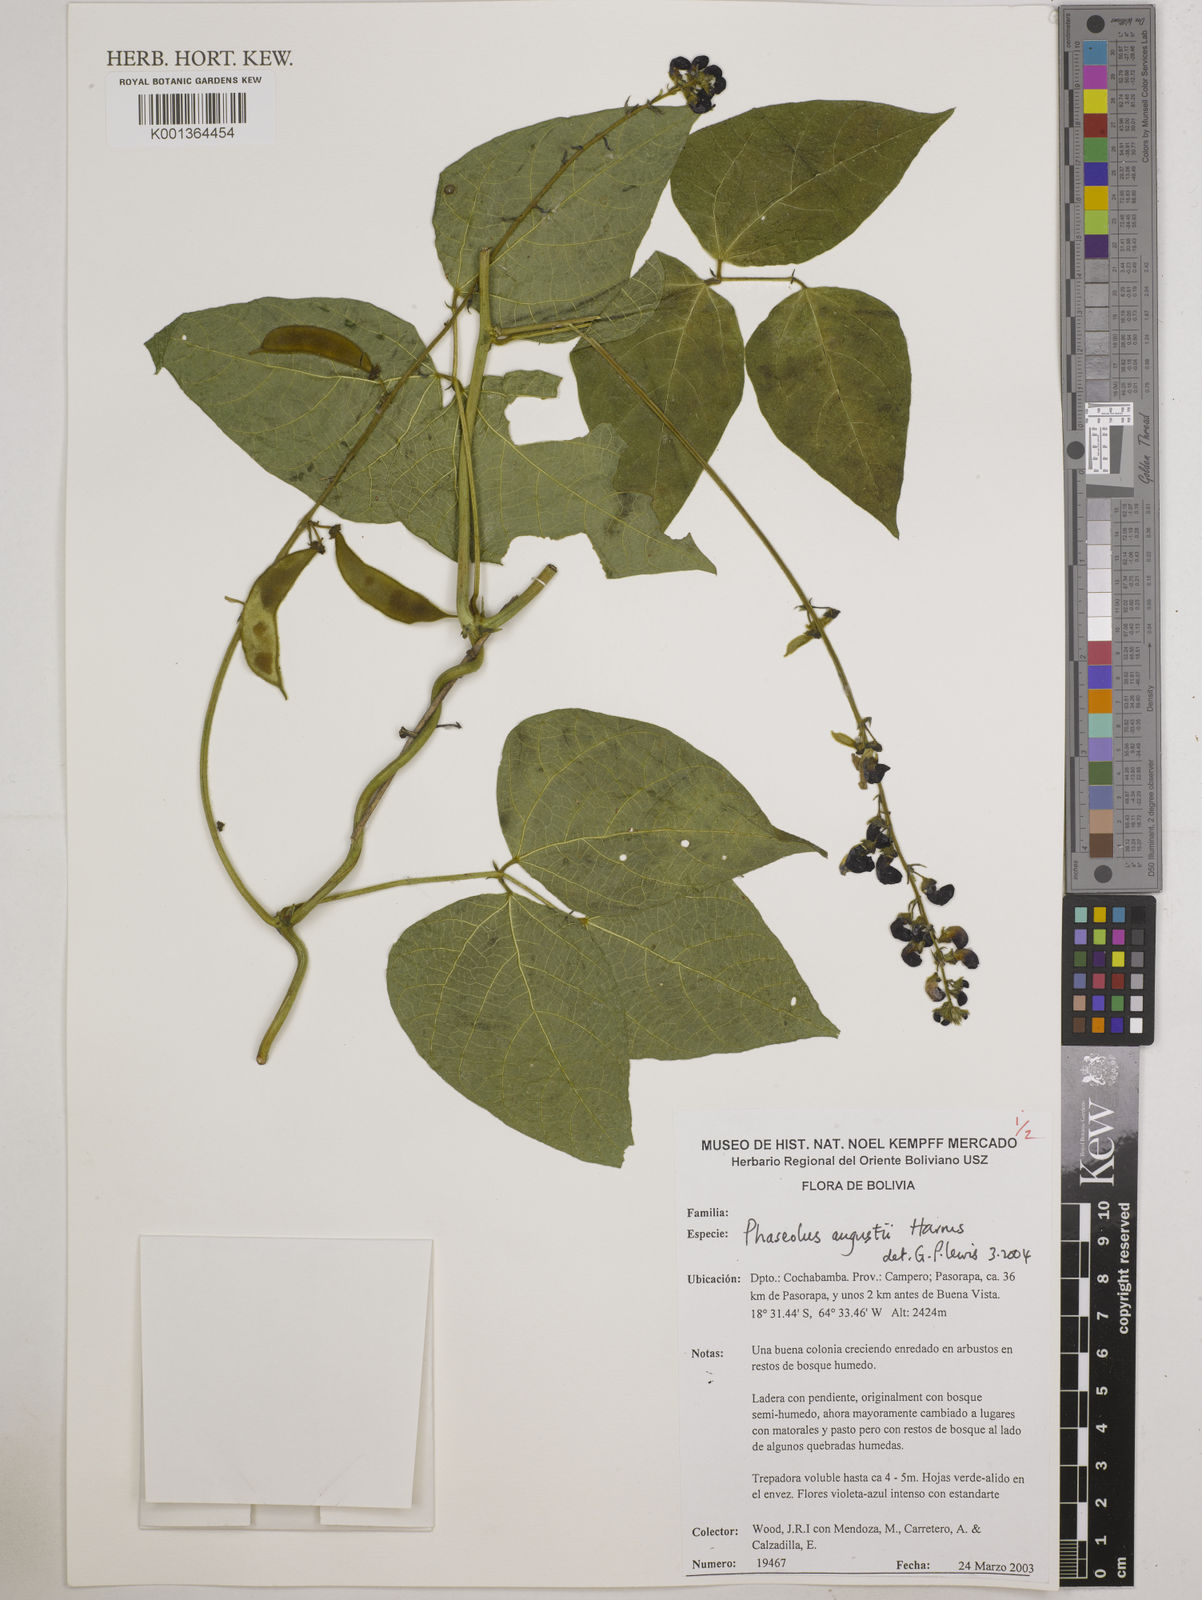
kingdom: Plantae
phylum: Tracheophyta
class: Magnoliopsida
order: Fabales
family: Fabaceae
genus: Phaseolus
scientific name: Phaseolus augusti
